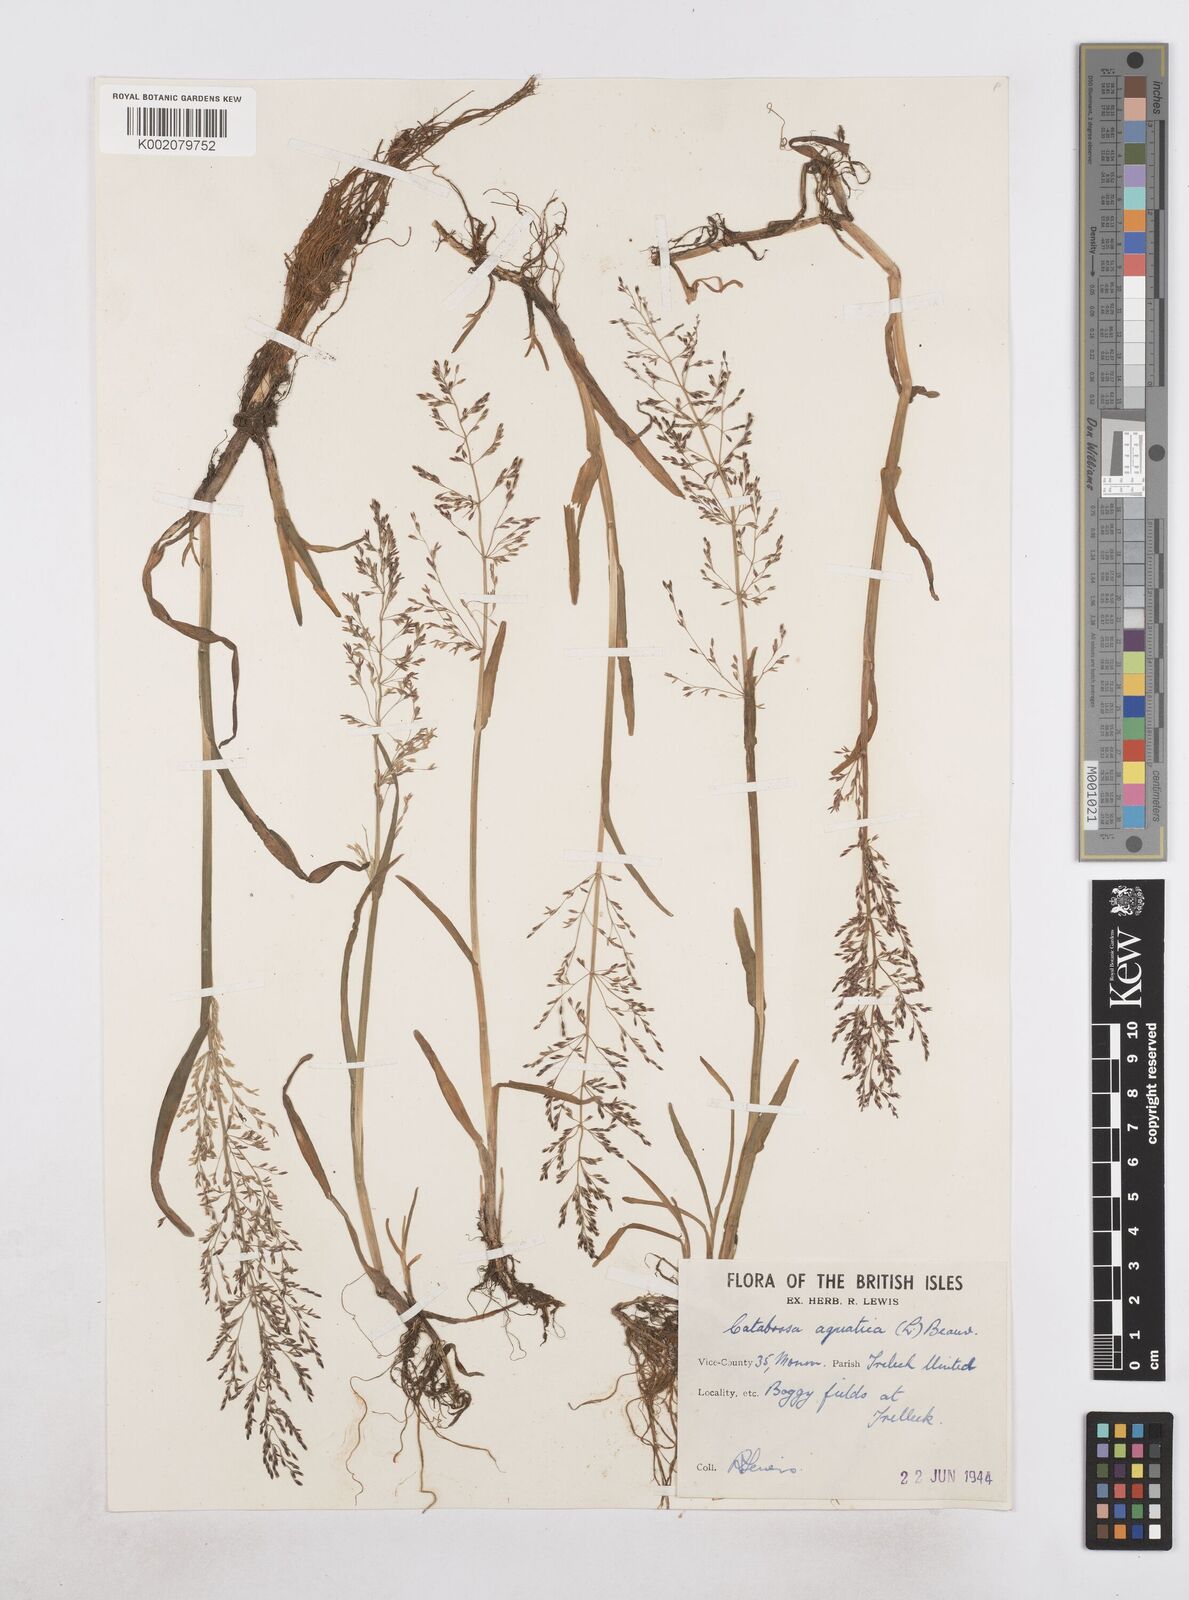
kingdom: Plantae
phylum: Tracheophyta
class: Liliopsida
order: Poales
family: Poaceae
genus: Catabrosa
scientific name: Catabrosa aquatica
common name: Whorl-grass
